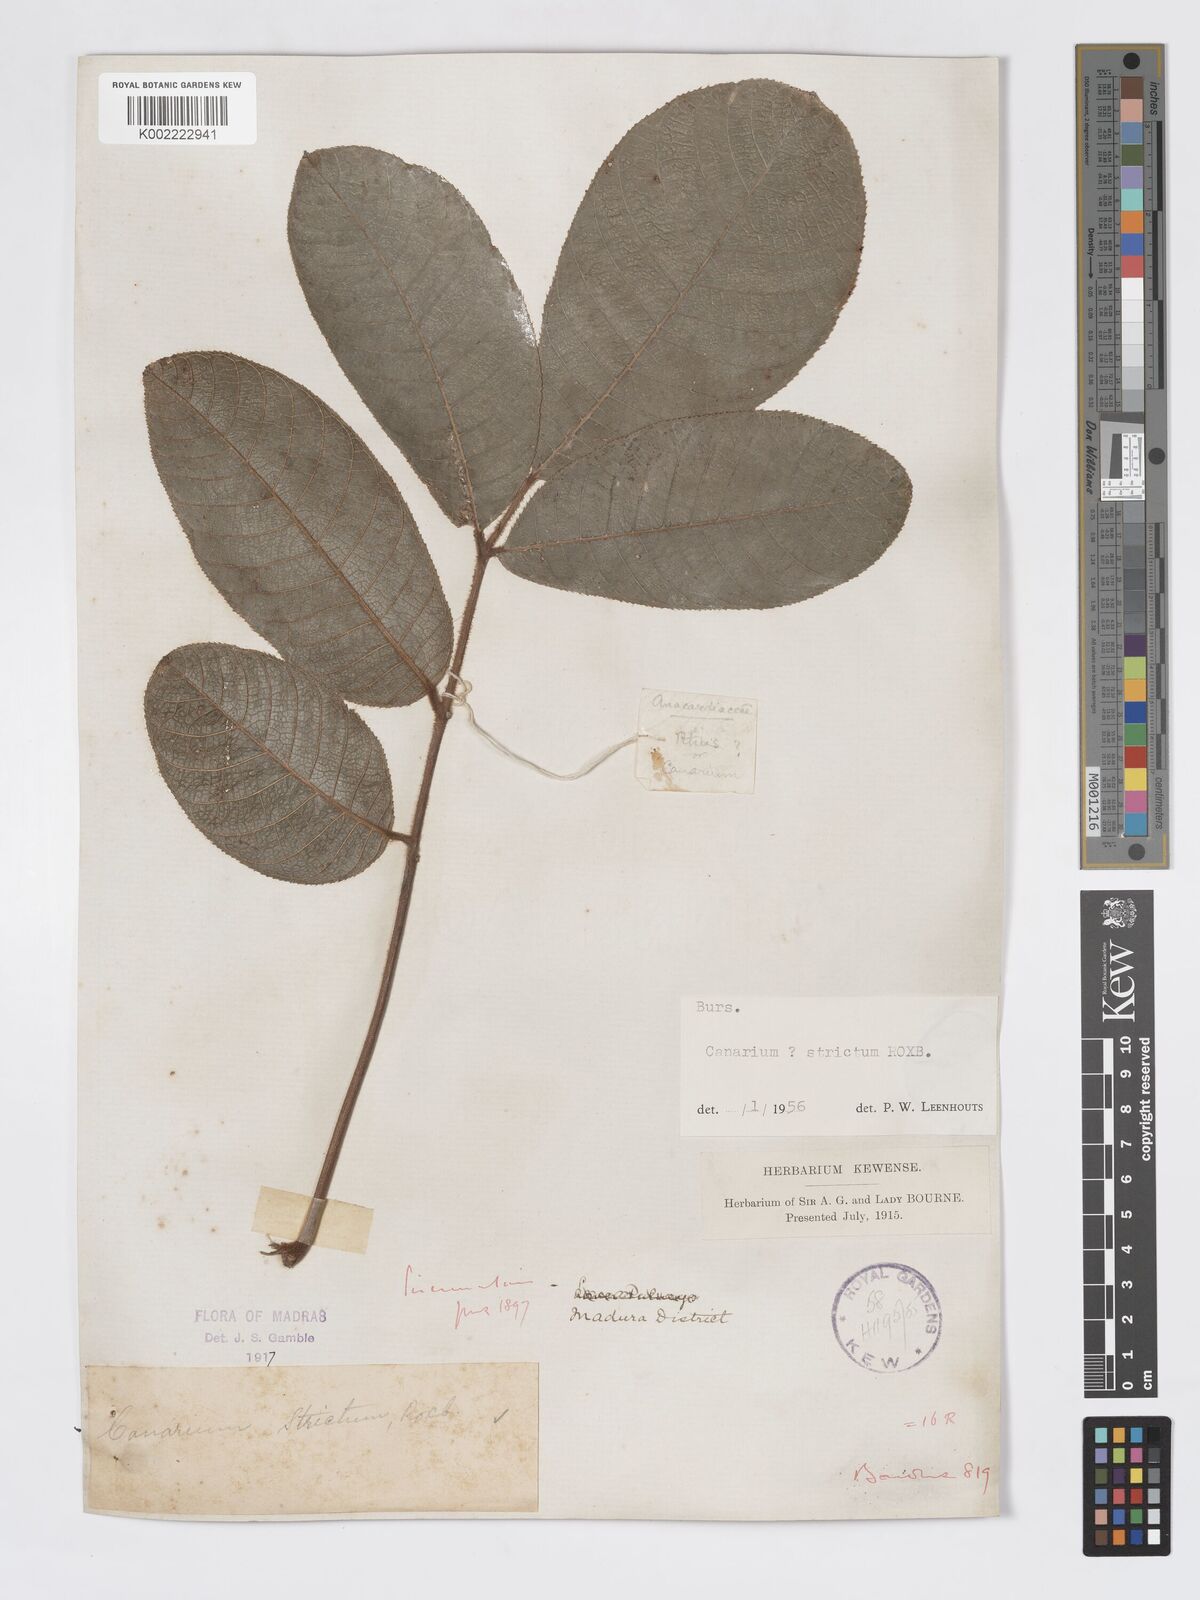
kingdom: Plantae
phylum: Tracheophyta
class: Magnoliopsida
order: Sapindales
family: Burseraceae
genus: Canarium
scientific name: Canarium strictum
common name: Indian white-mahogany
